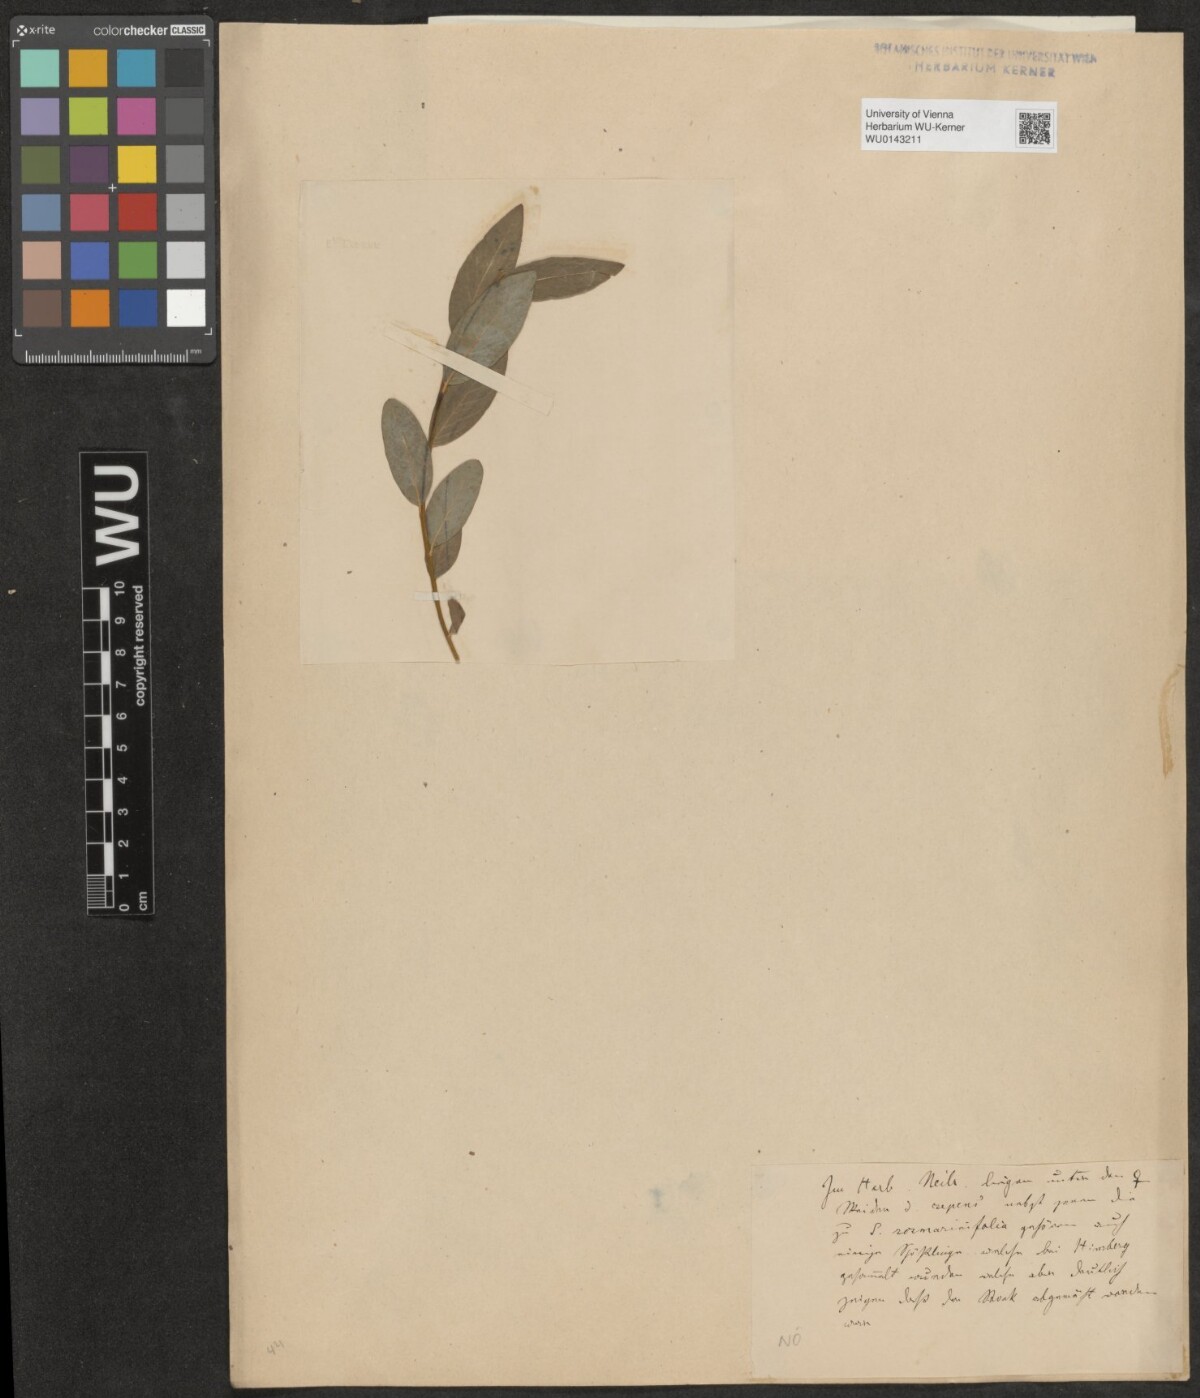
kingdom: Plantae
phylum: Tracheophyta
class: Magnoliopsida
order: Malpighiales
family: Salicaceae
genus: Salix
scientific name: Salix repens
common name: Creeping willow
